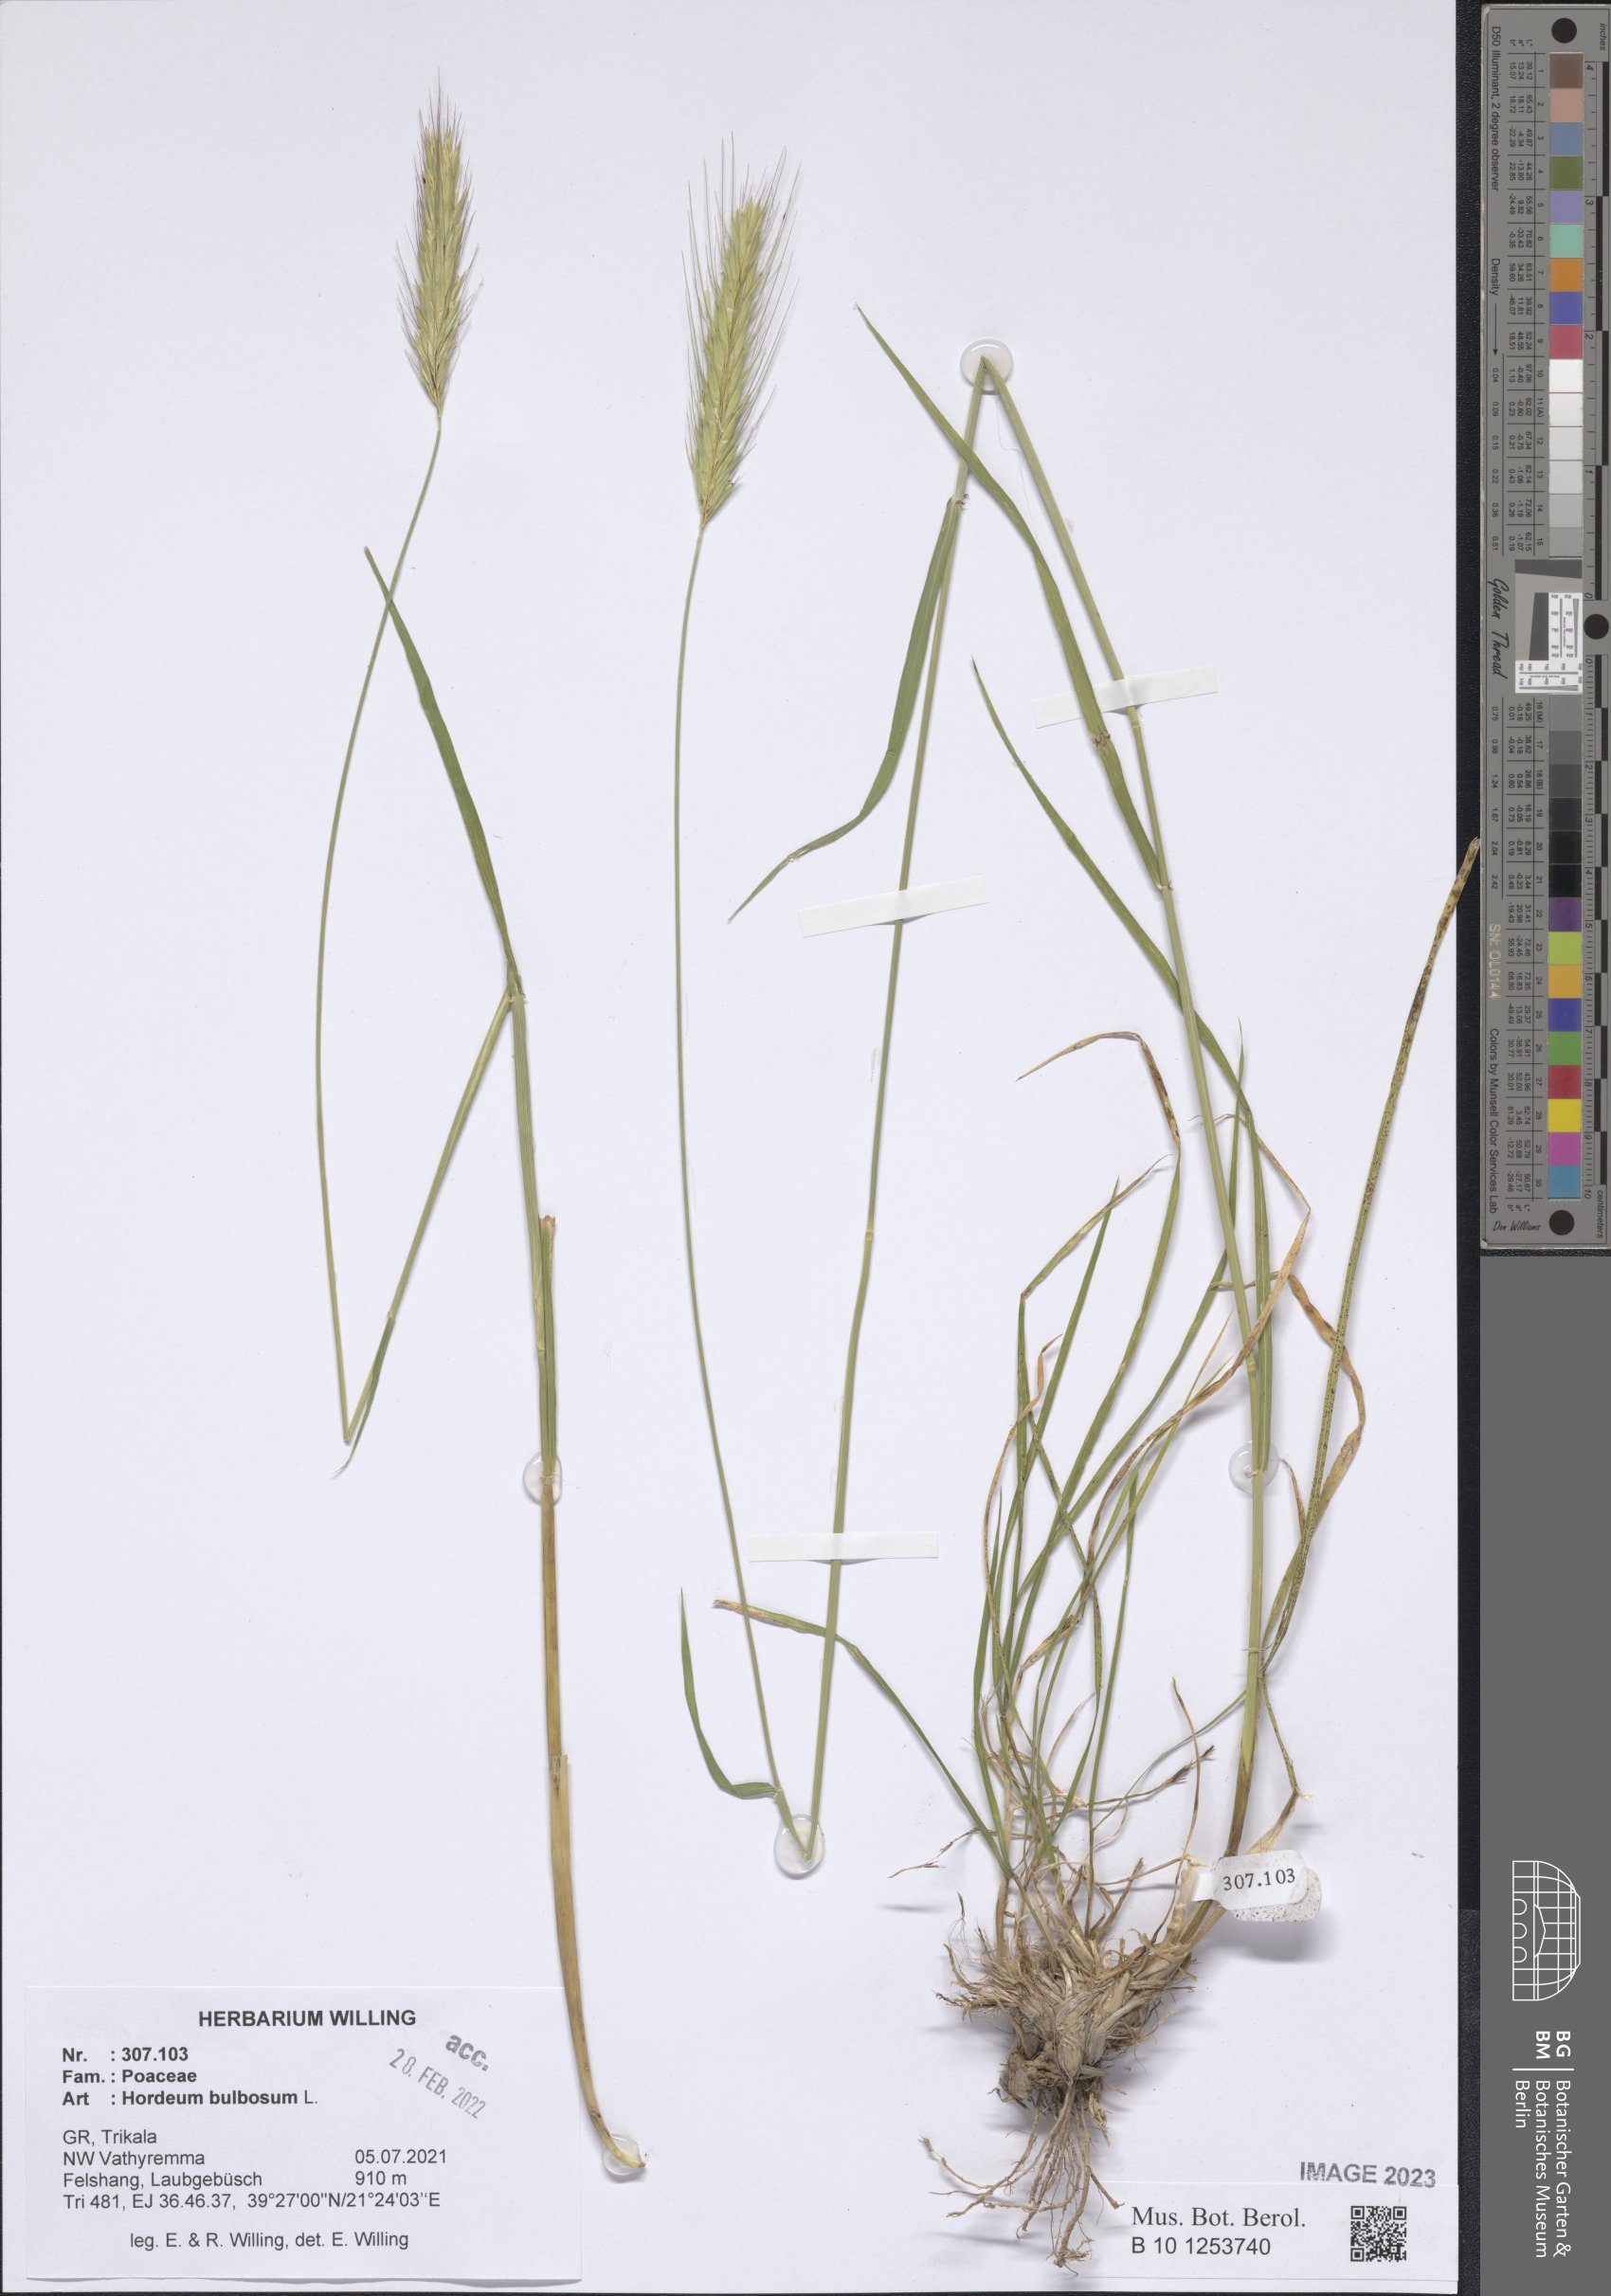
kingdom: Plantae
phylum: Tracheophyta
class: Liliopsida
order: Poales
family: Poaceae
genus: Hordeum
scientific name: Hordeum bulbosum
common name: Bulbous barley
